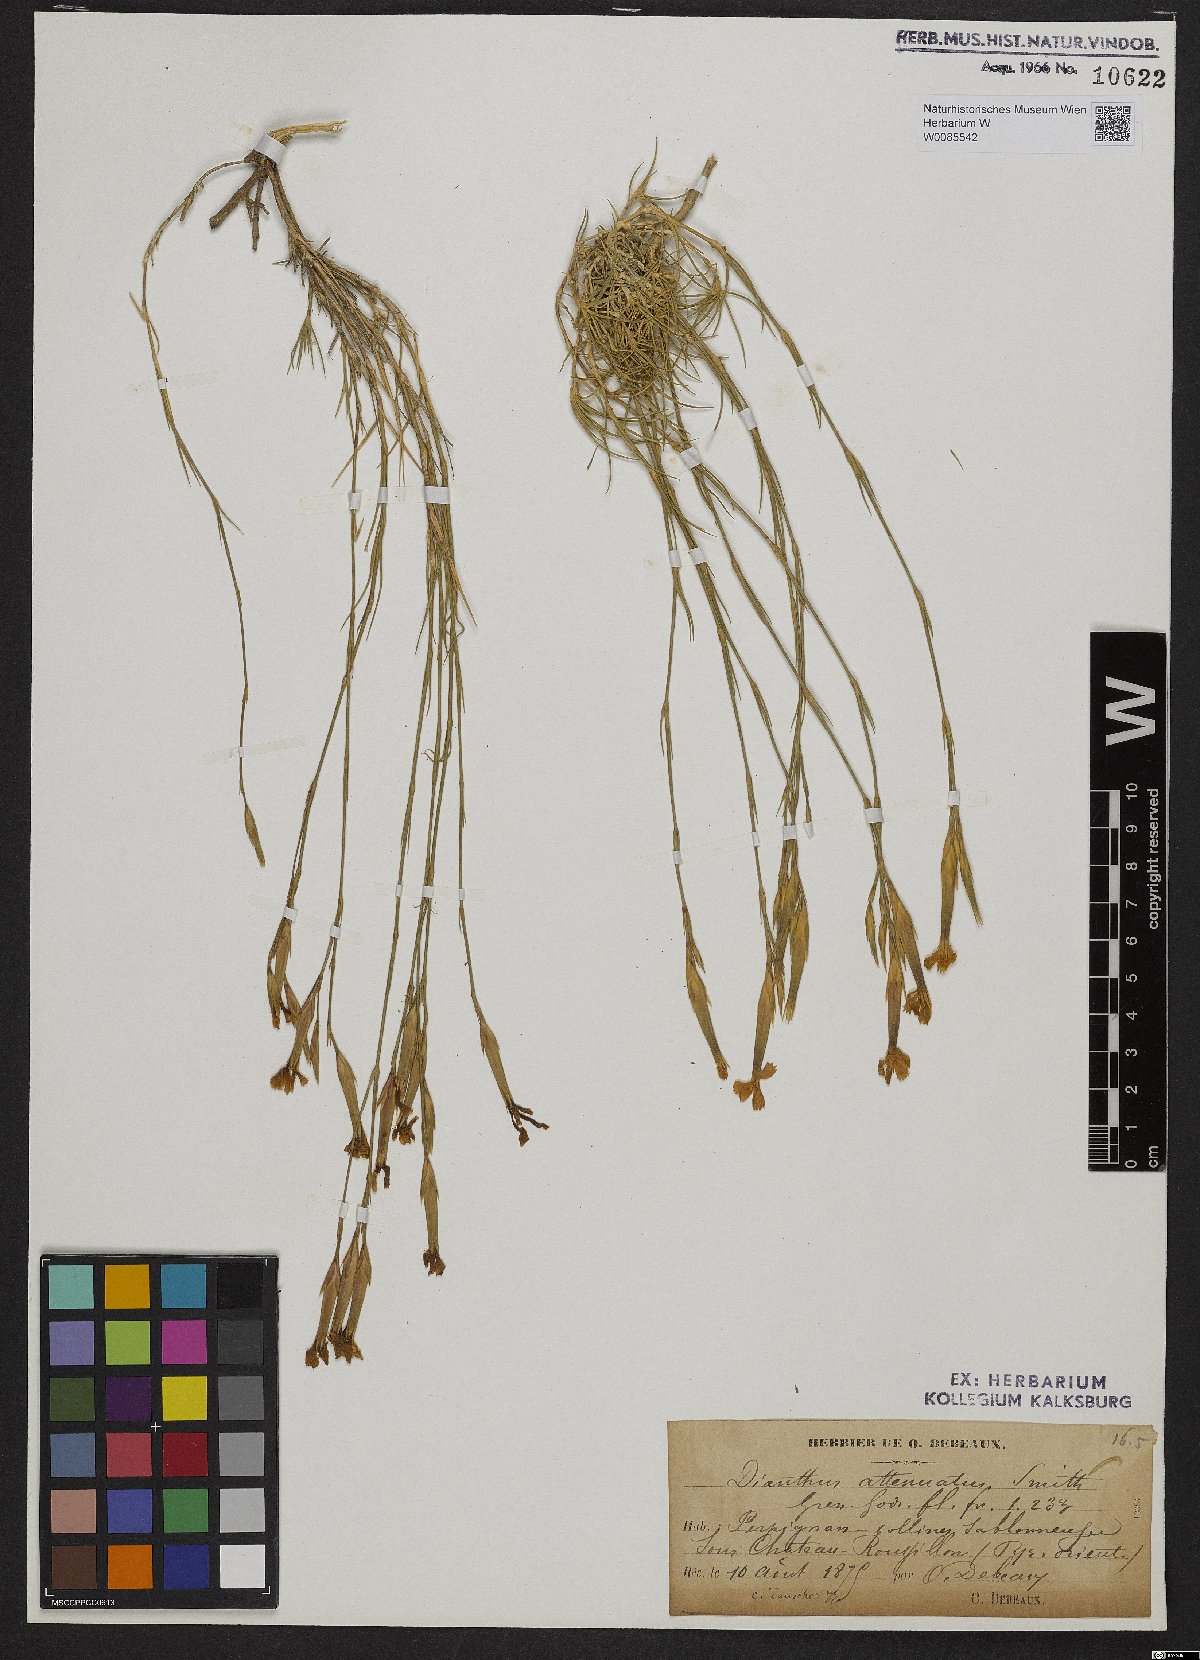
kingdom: Plantae
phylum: Tracheophyta
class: Magnoliopsida
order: Caryophyllales
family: Caryophyllaceae
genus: Dianthus
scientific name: Dianthus pyrenaicus
